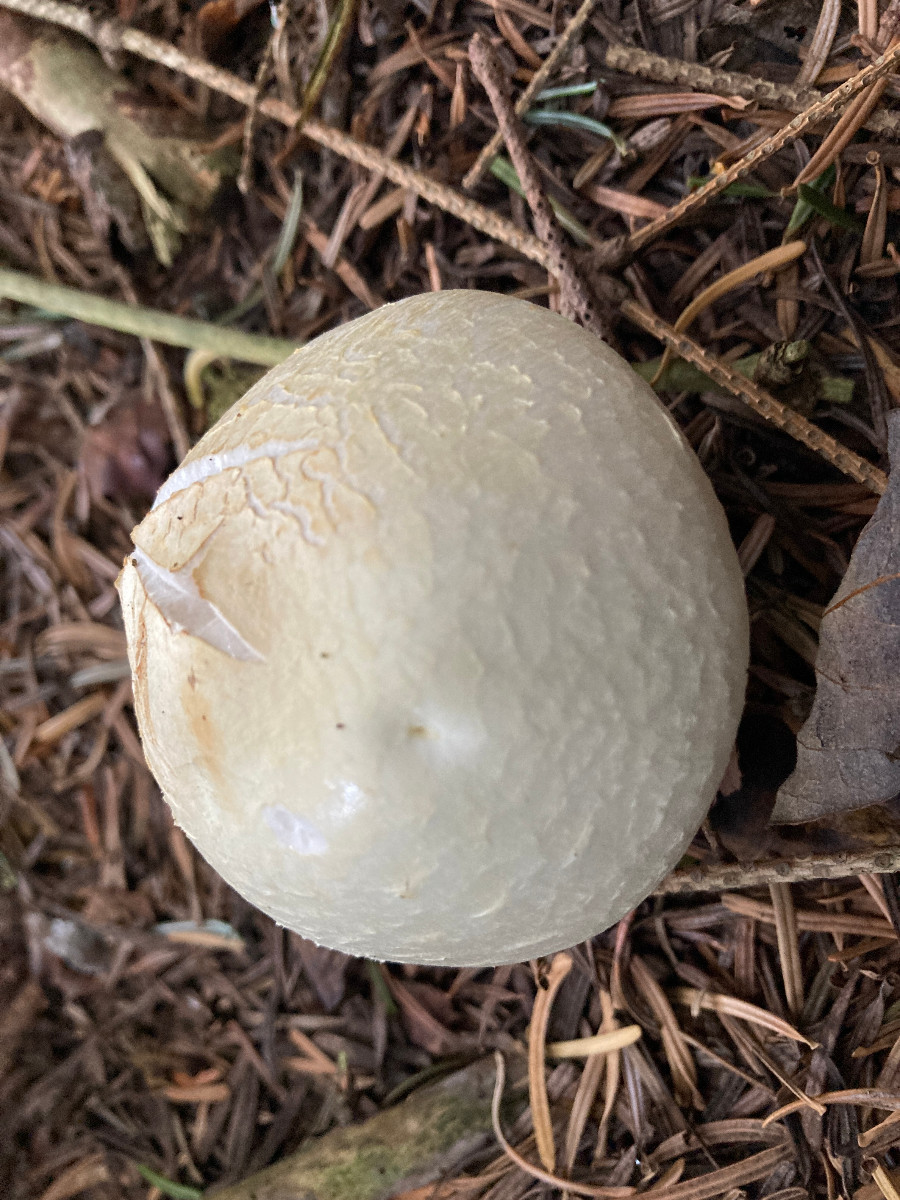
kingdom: Fungi
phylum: Basidiomycota
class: Agaricomycetes
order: Agaricales
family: Agaricaceae
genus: Agaricus
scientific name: Agaricus
